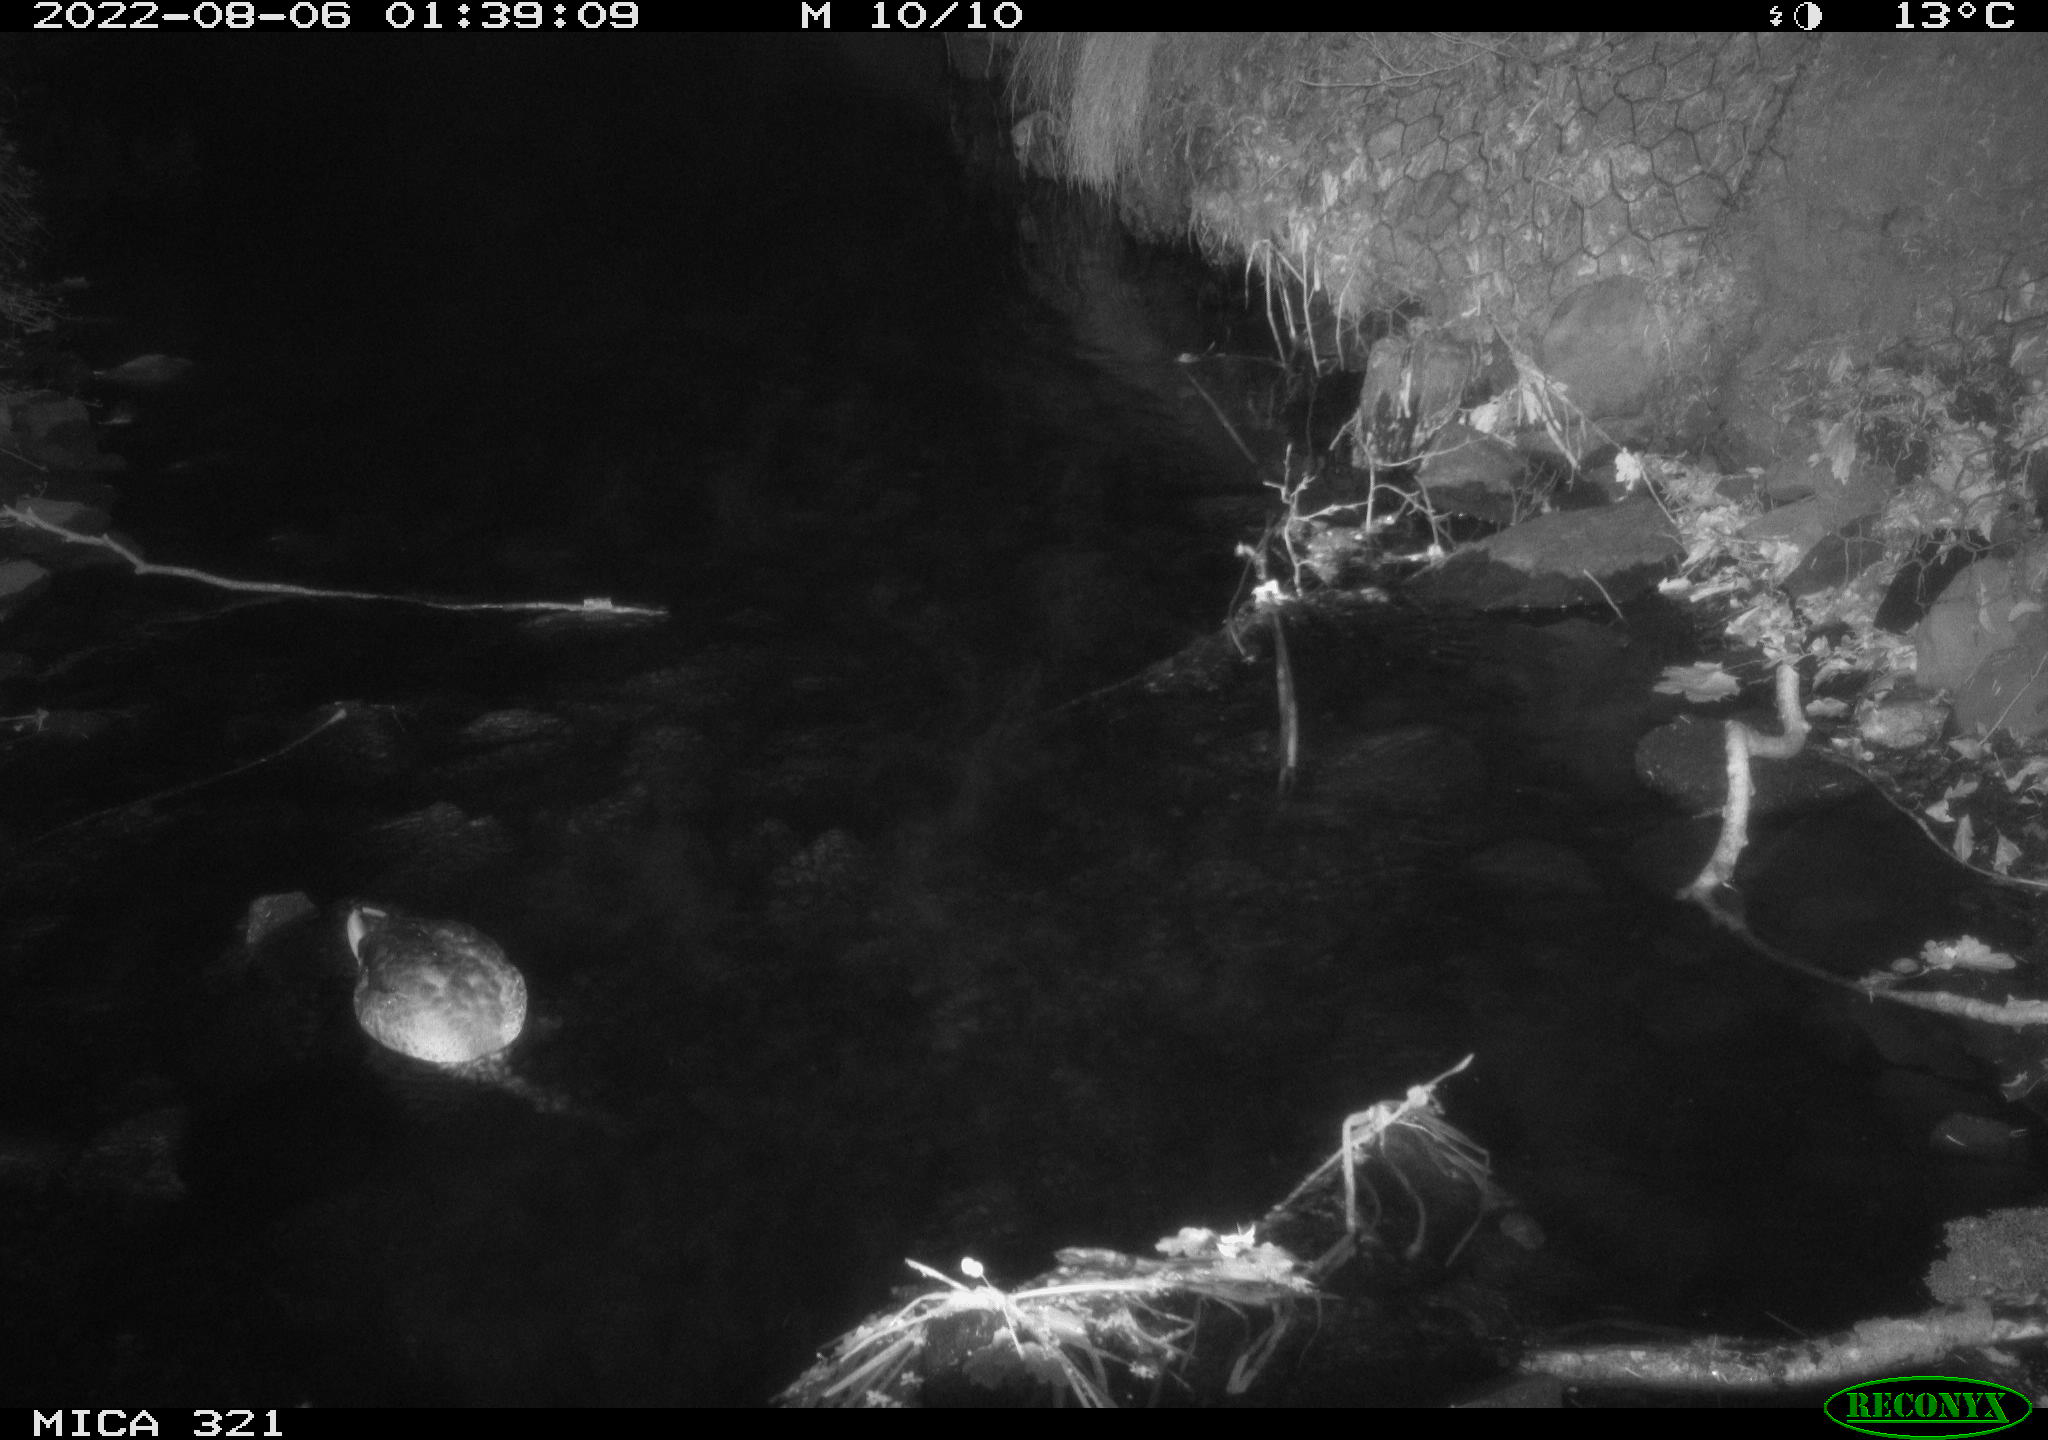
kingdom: Animalia
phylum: Chordata
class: Aves
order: Anseriformes
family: Anatidae
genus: Anas
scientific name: Anas platyrhynchos
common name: Mallard
